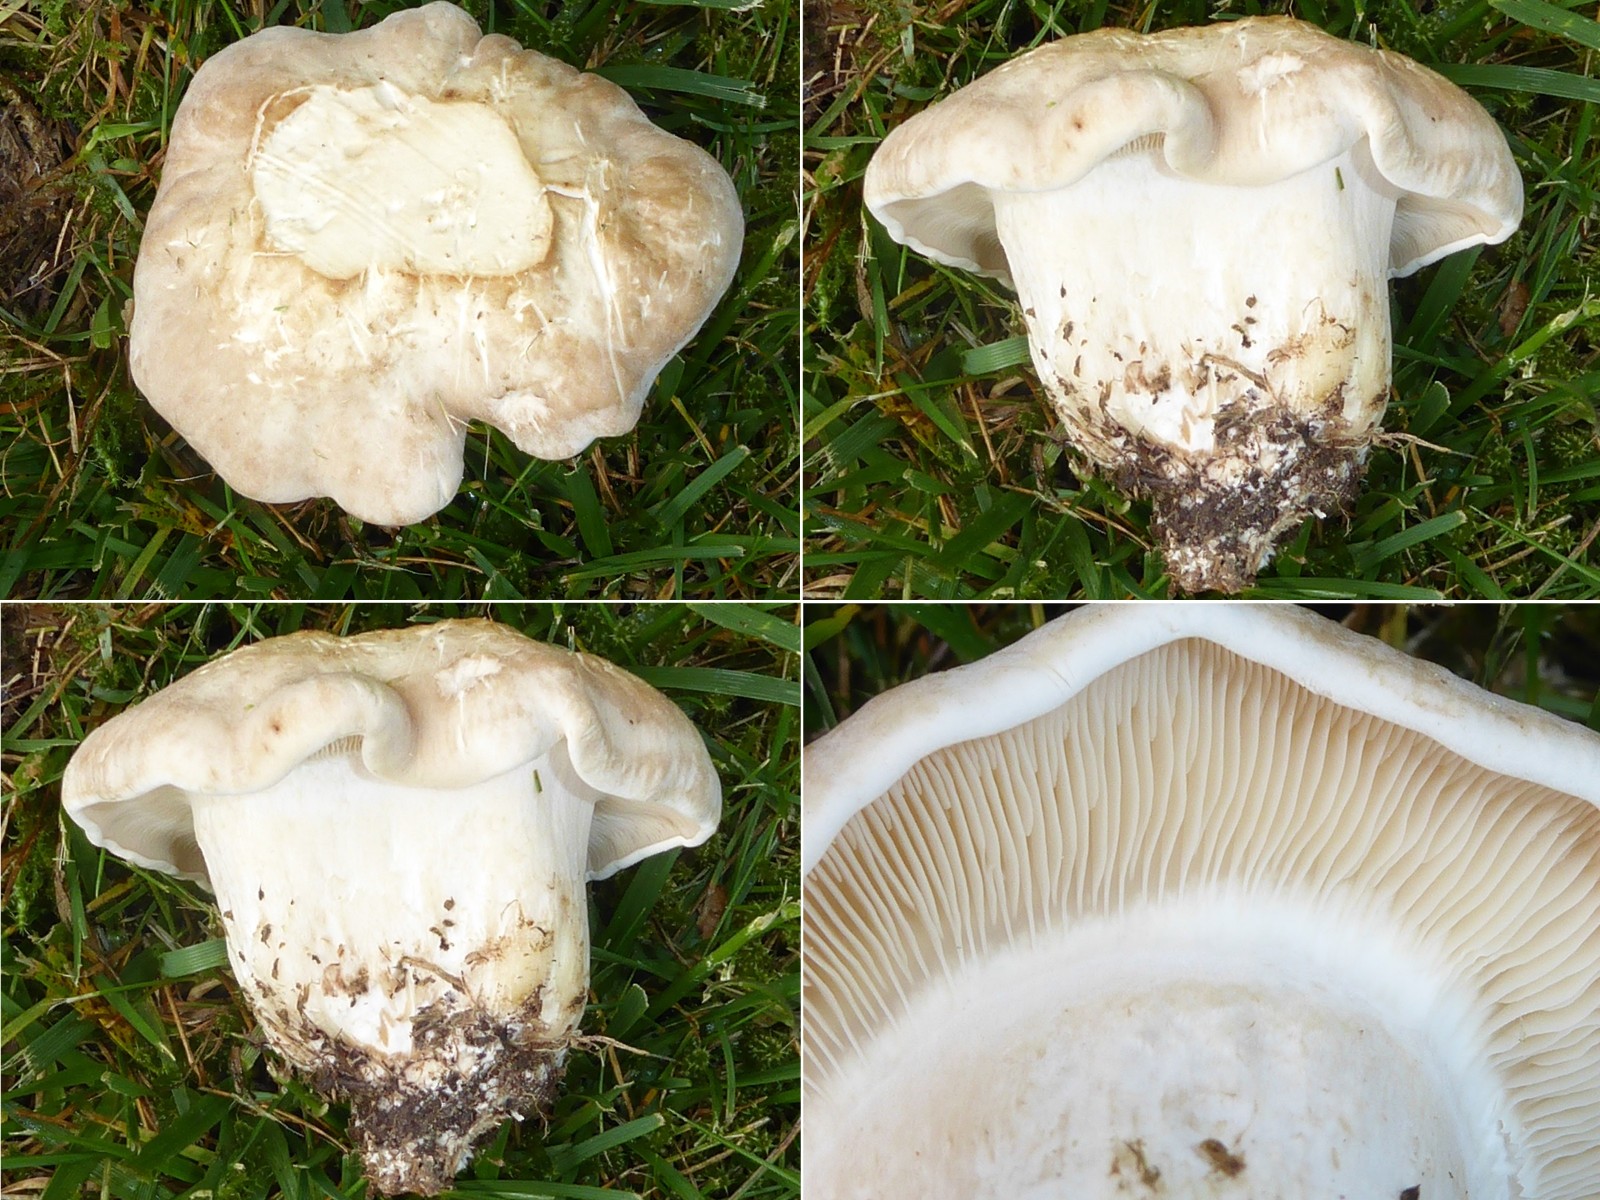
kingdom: Fungi
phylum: Basidiomycota
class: Agaricomycetes
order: Agaricales
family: Lyophyllaceae
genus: Calocybe
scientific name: Calocybe gambosa
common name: vårmusseron
